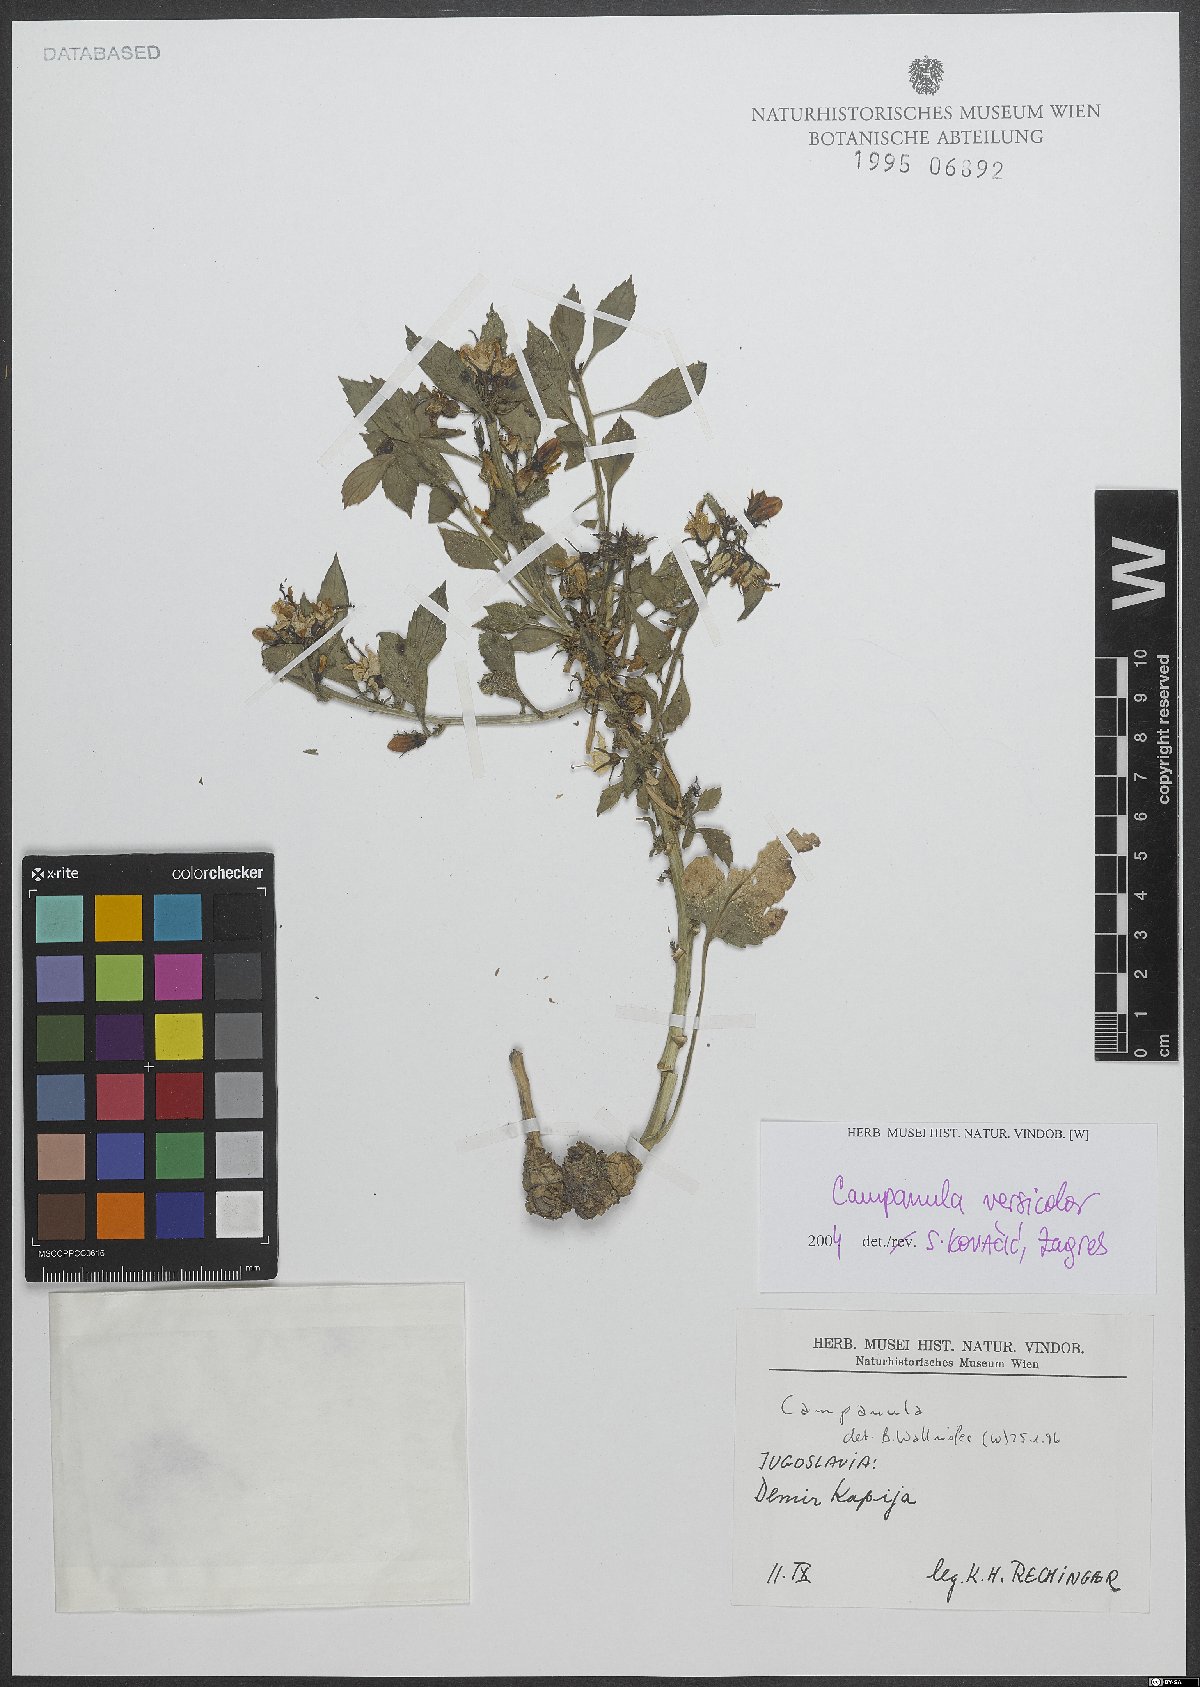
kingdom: Plantae
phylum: Tracheophyta
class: Magnoliopsida
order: Asterales
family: Campanulaceae
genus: Campanula
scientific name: Campanula versicolor
